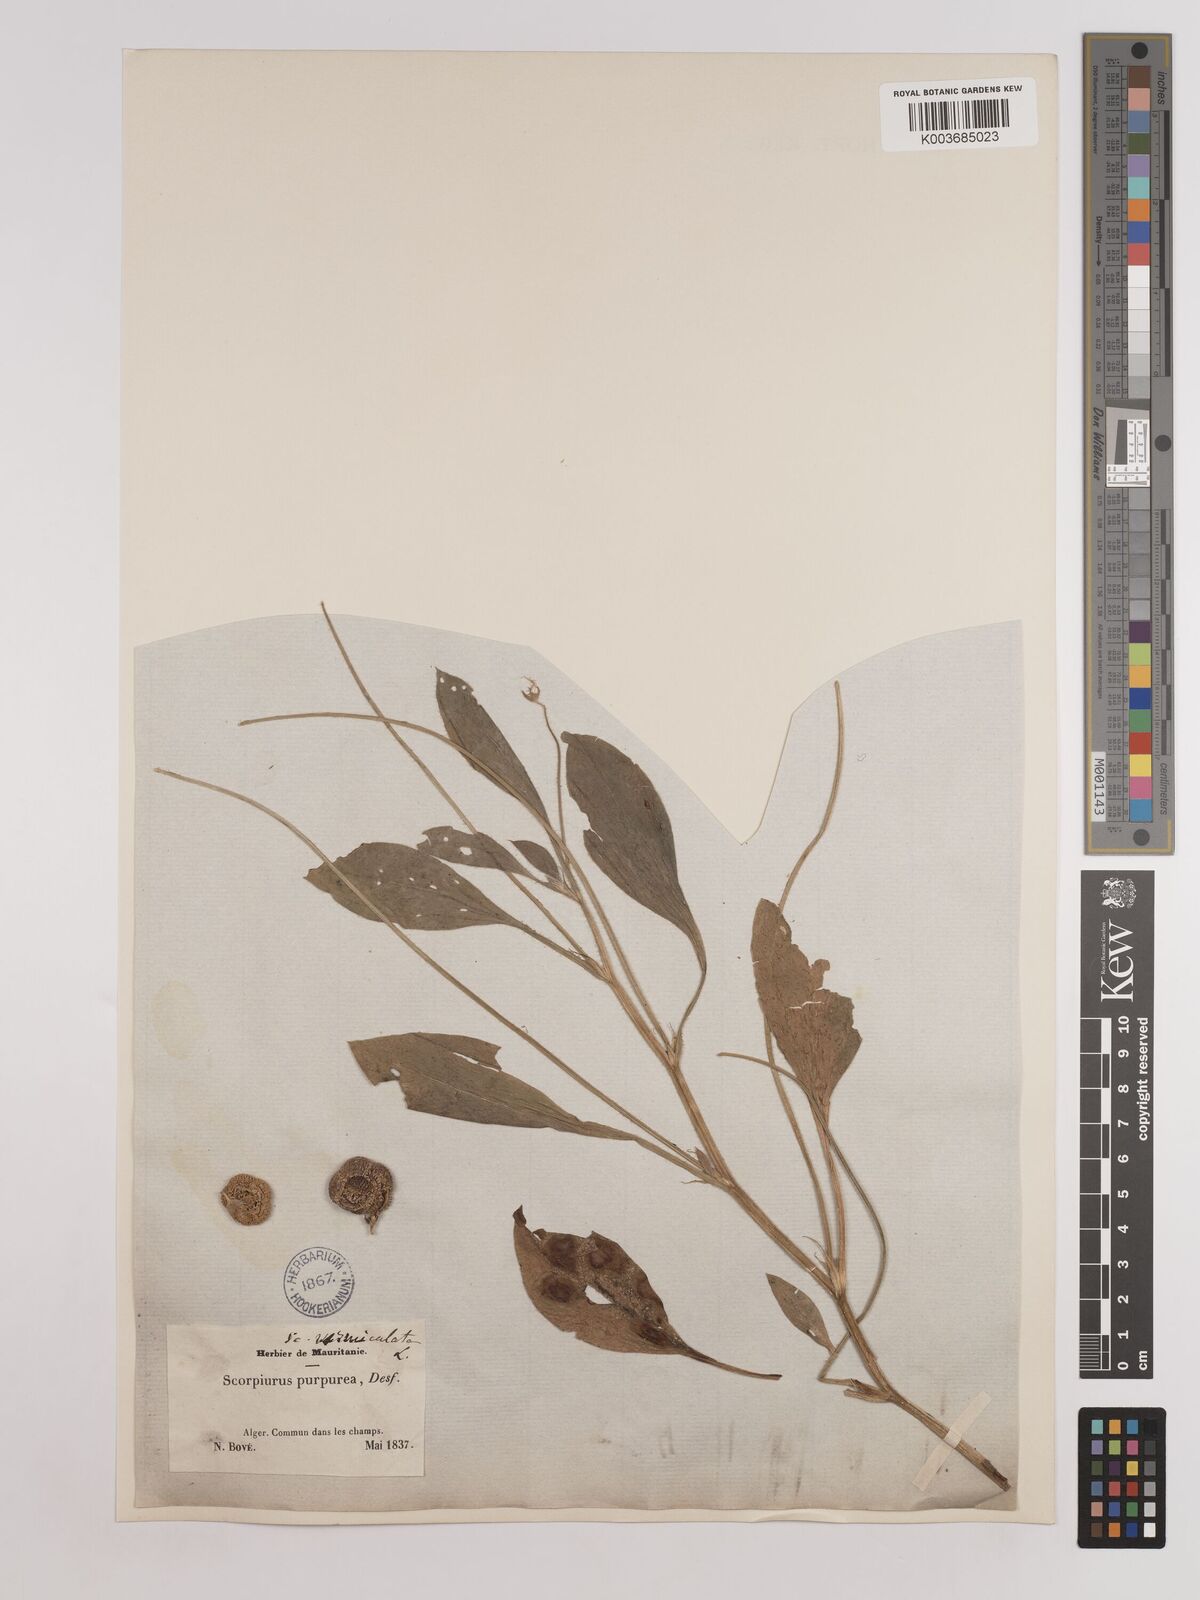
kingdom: Plantae
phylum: Tracheophyta
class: Magnoliopsida
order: Fabales
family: Fabaceae
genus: Scorpiurus
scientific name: Scorpiurus vermiculatus
